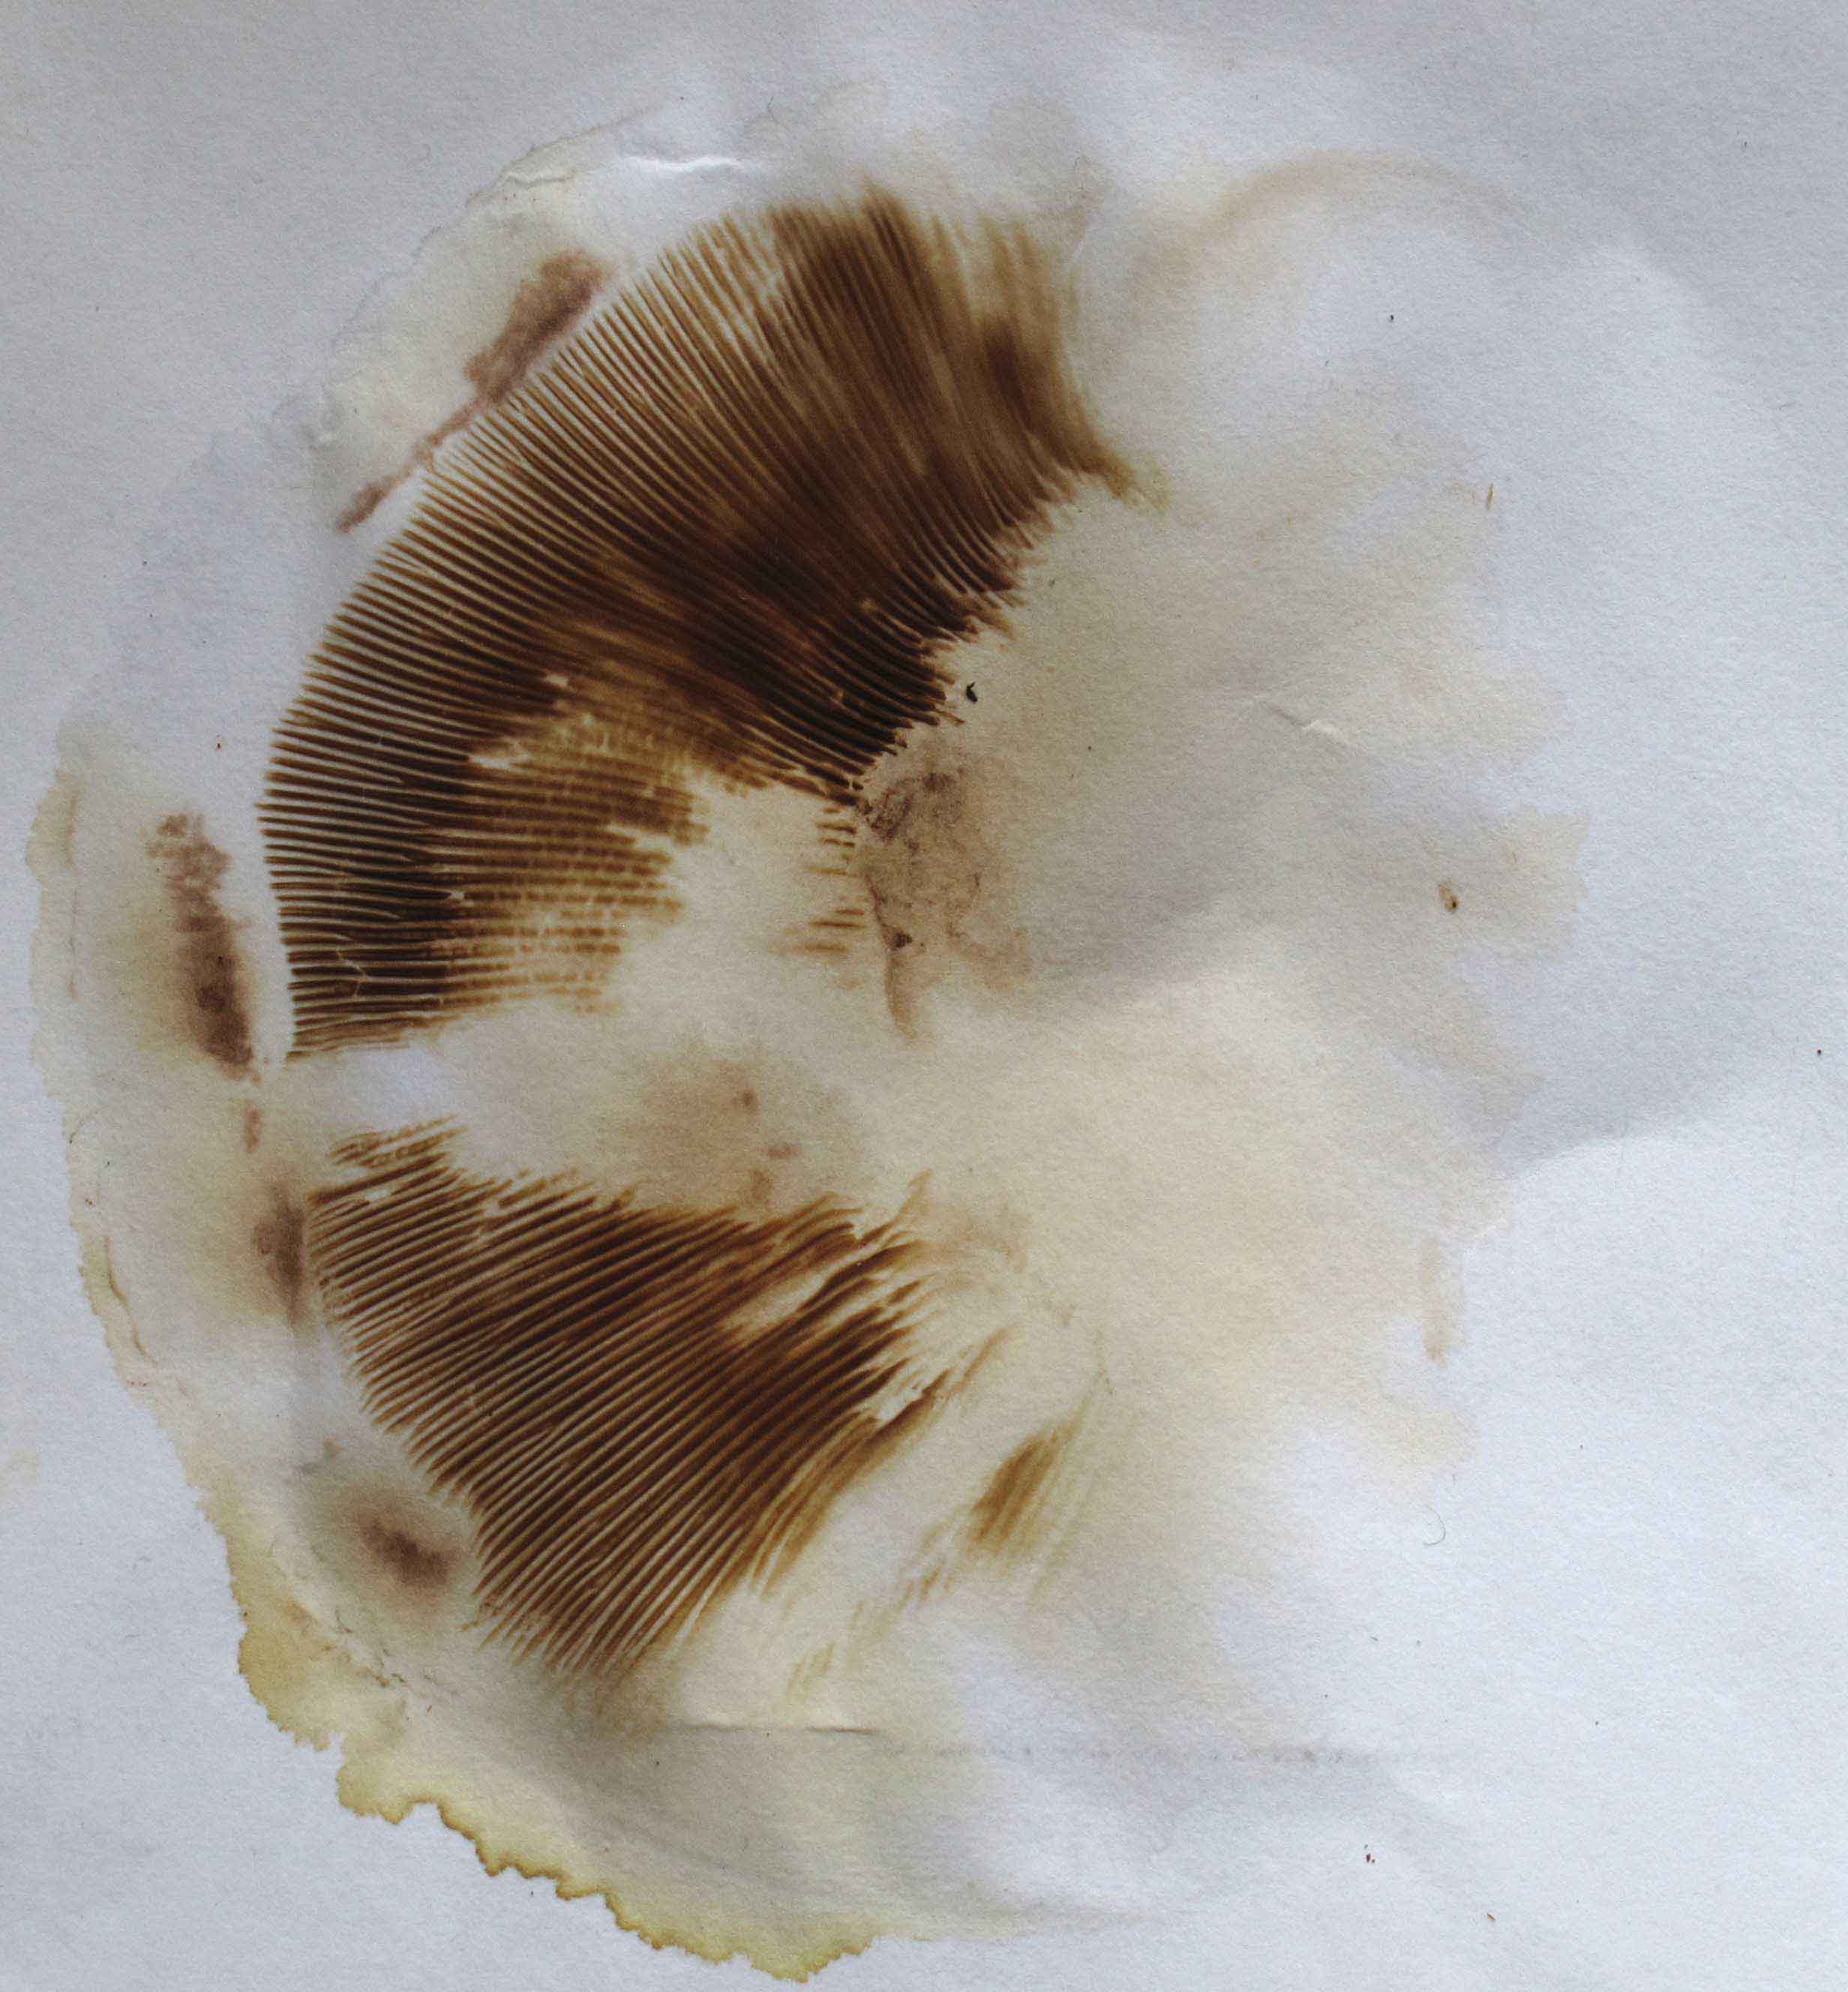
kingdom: Fungi
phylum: Basidiomycota
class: Agaricomycetes
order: Boletales
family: Paxillaceae
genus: Paxillus
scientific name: Paxillus ammoniavirescens
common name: olivensporet netbladhat
